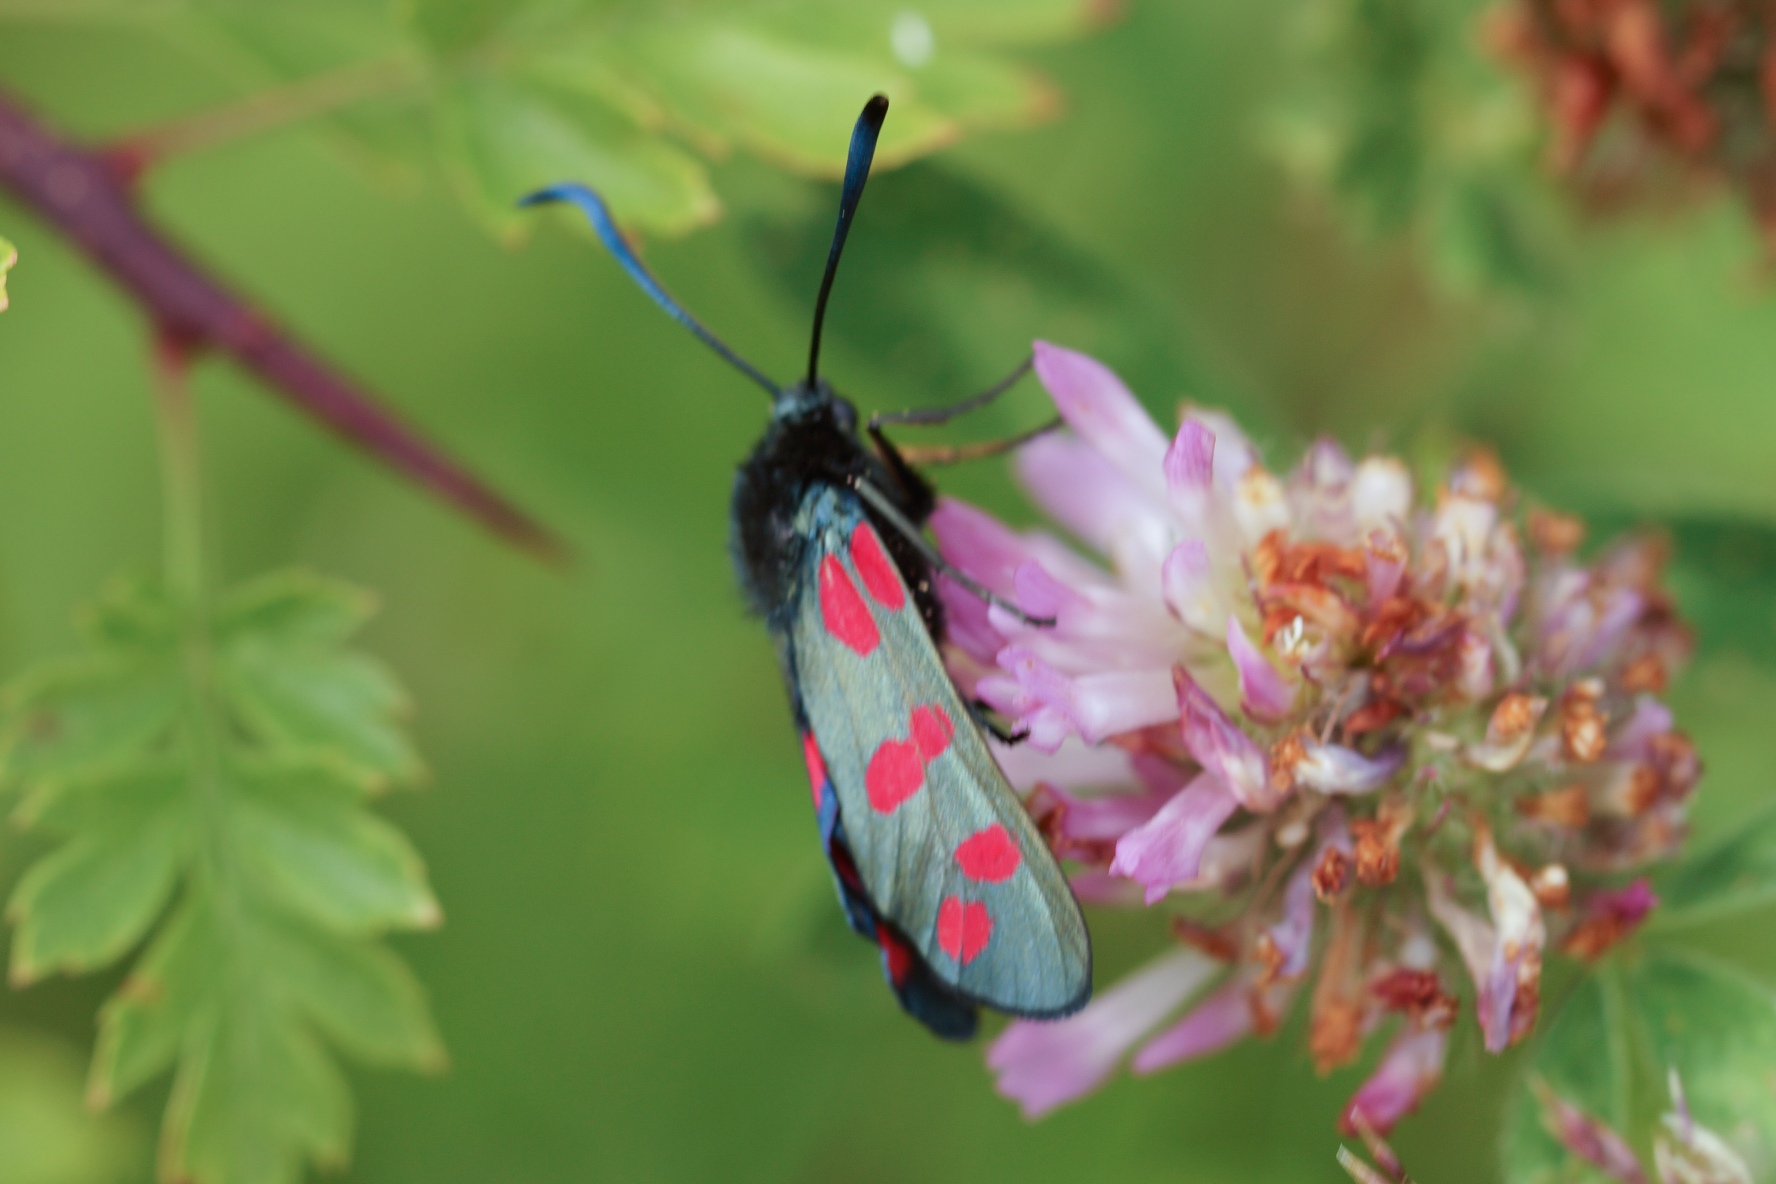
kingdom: Animalia
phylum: Arthropoda
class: Insecta
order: Lepidoptera
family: Zygaenidae
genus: Zygaena
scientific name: Zygaena filipendulae
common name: Seksplettet køllesværmer
